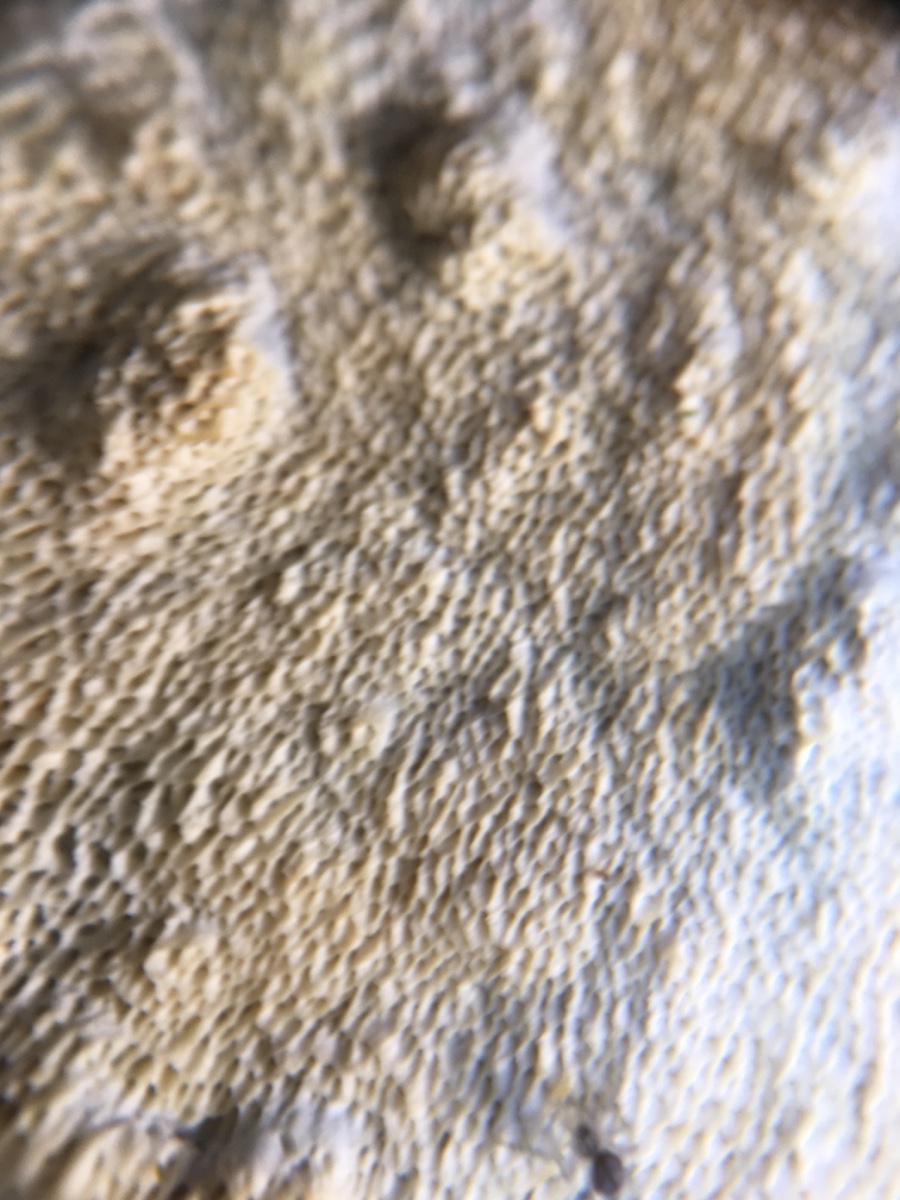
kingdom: Fungi
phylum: Basidiomycota
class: Agaricomycetes
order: Polyporales
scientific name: Polyporales
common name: poresvampordenen
